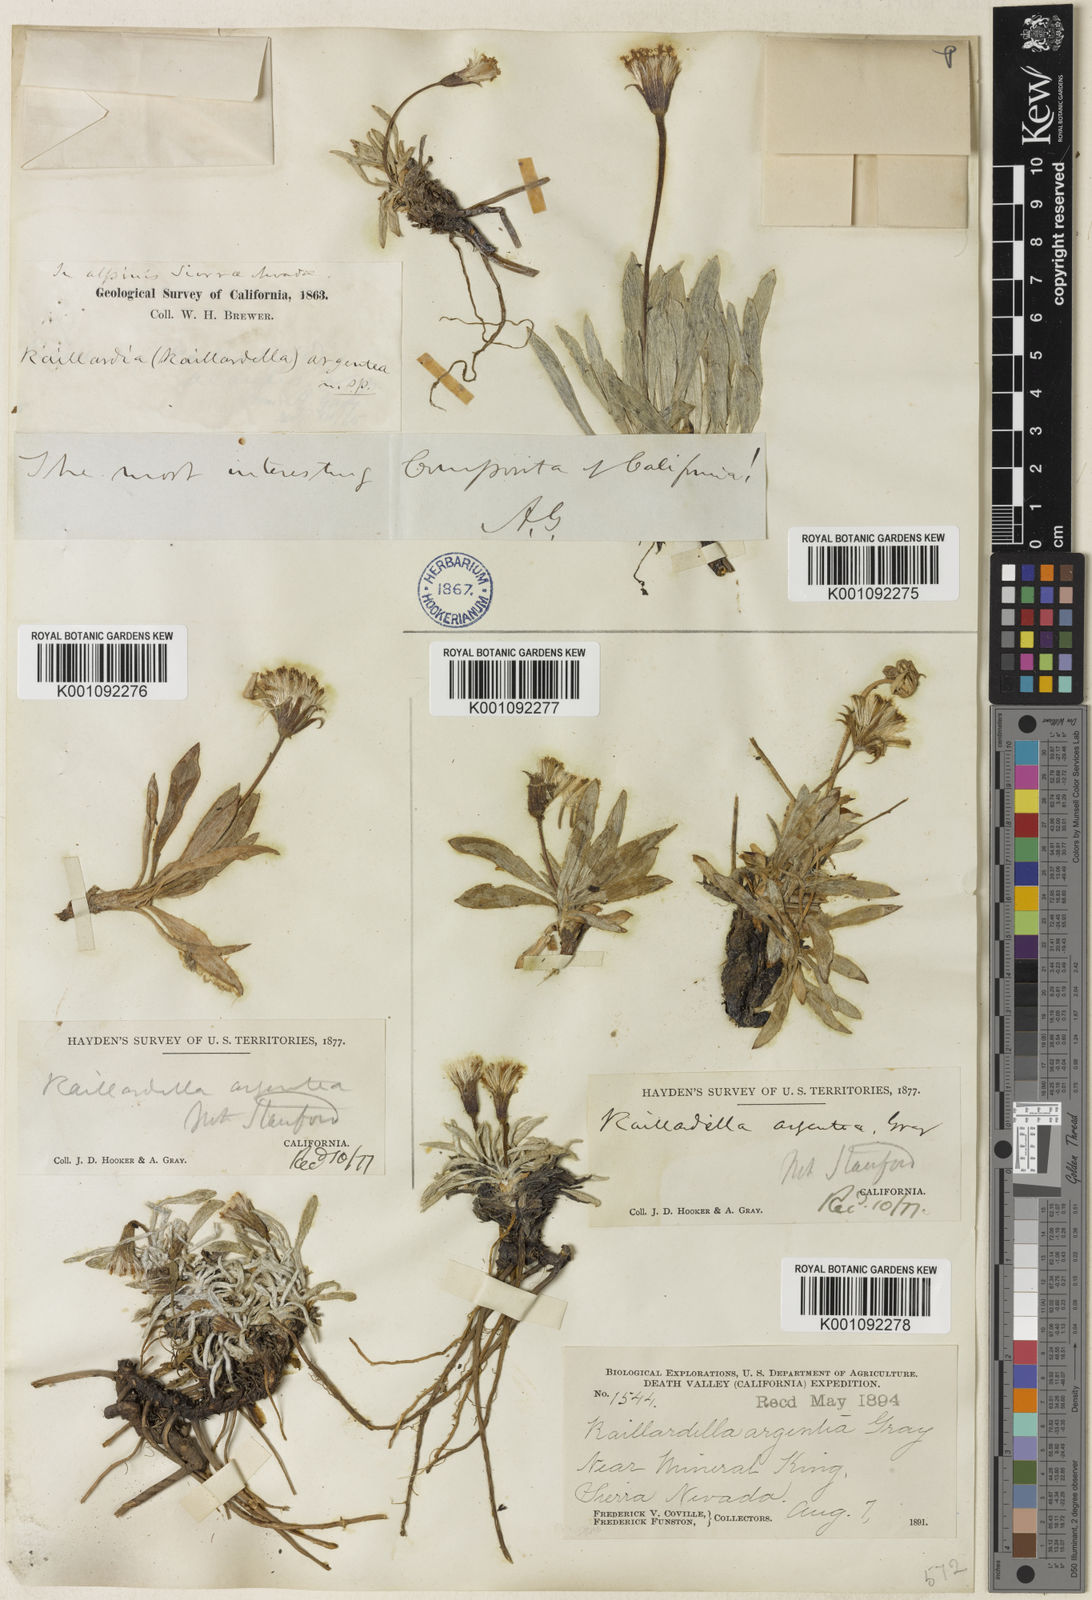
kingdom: Plantae
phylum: Tracheophyta
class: Magnoliopsida
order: Asterales
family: Asteraceae
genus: Raillardella
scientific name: Raillardella argentea
